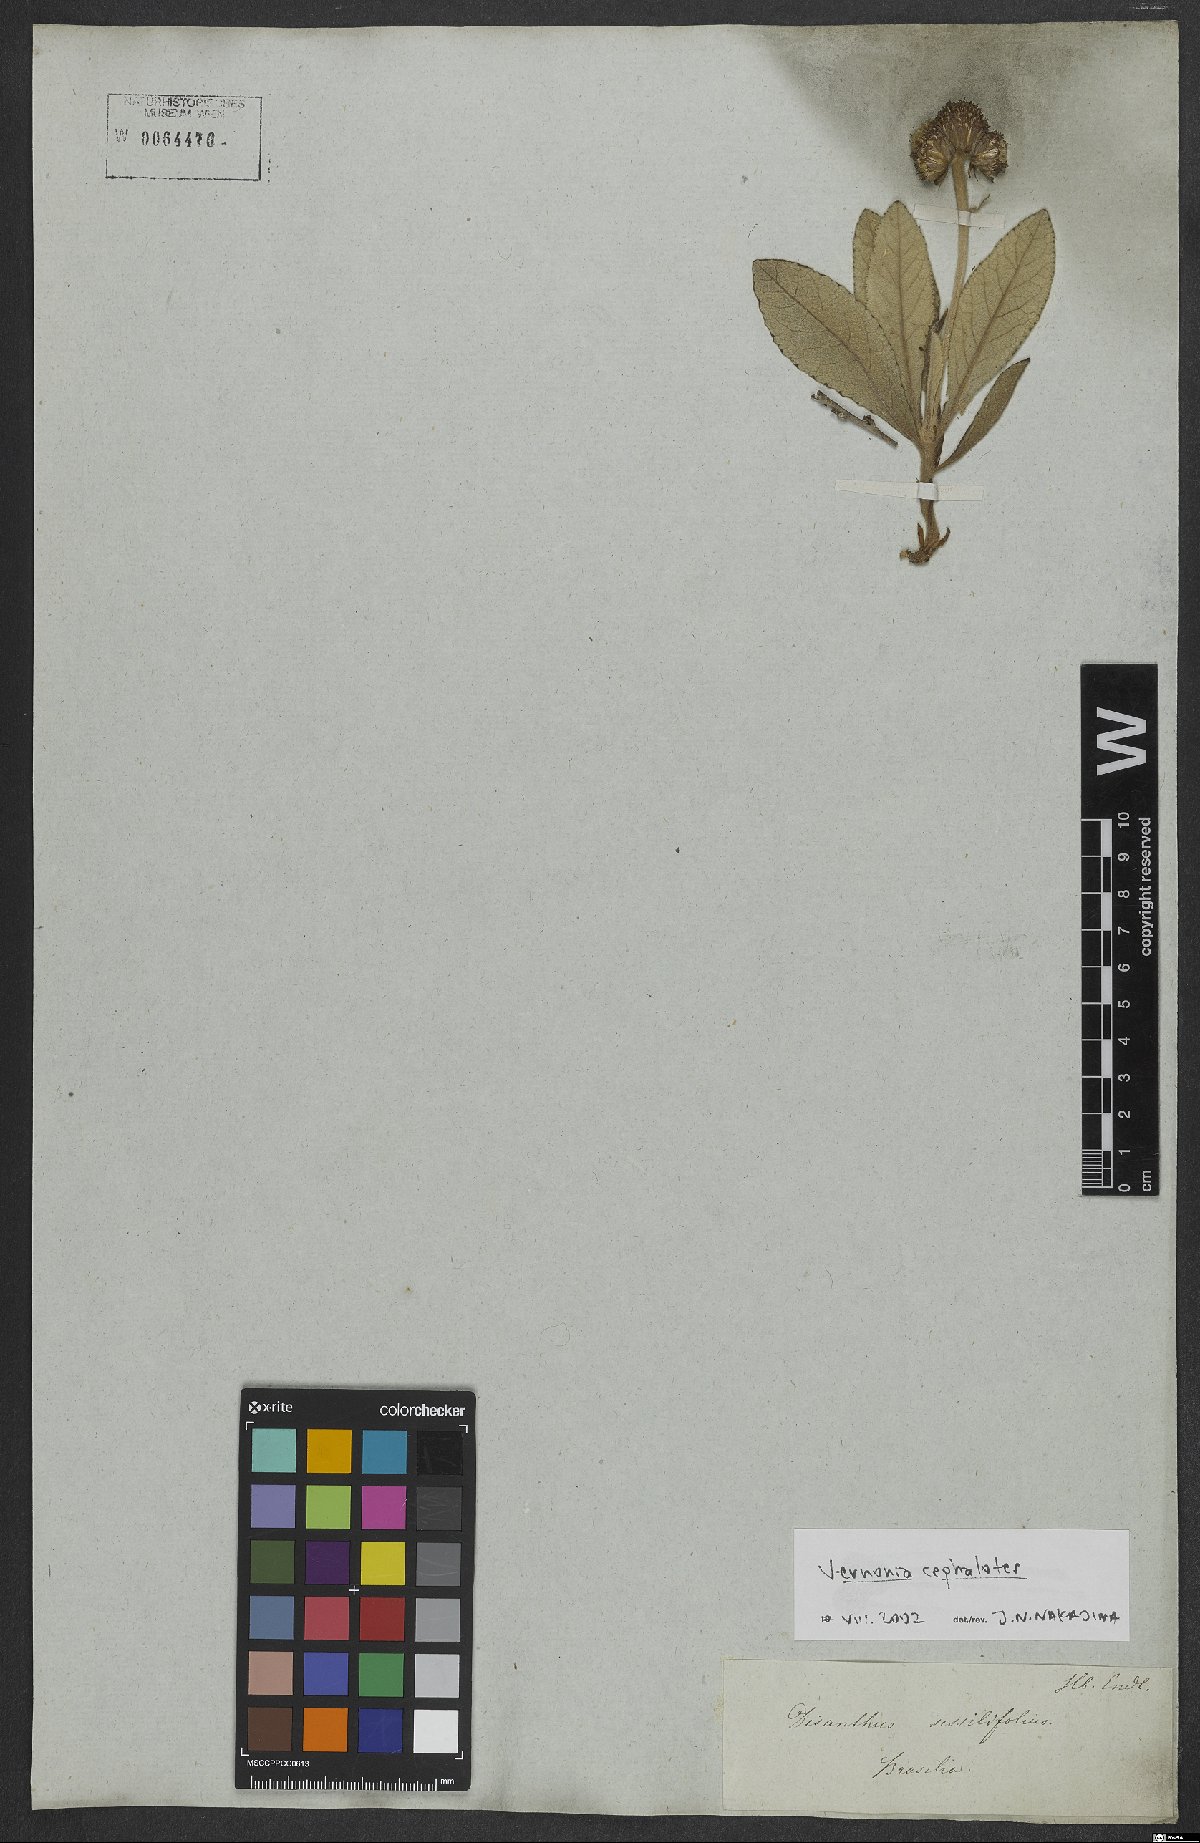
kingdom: Plantae
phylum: Tracheophyta
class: Magnoliopsida
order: Asterales
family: Asteraceae
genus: Lessingianthus
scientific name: Lessingianthus cephalotes
